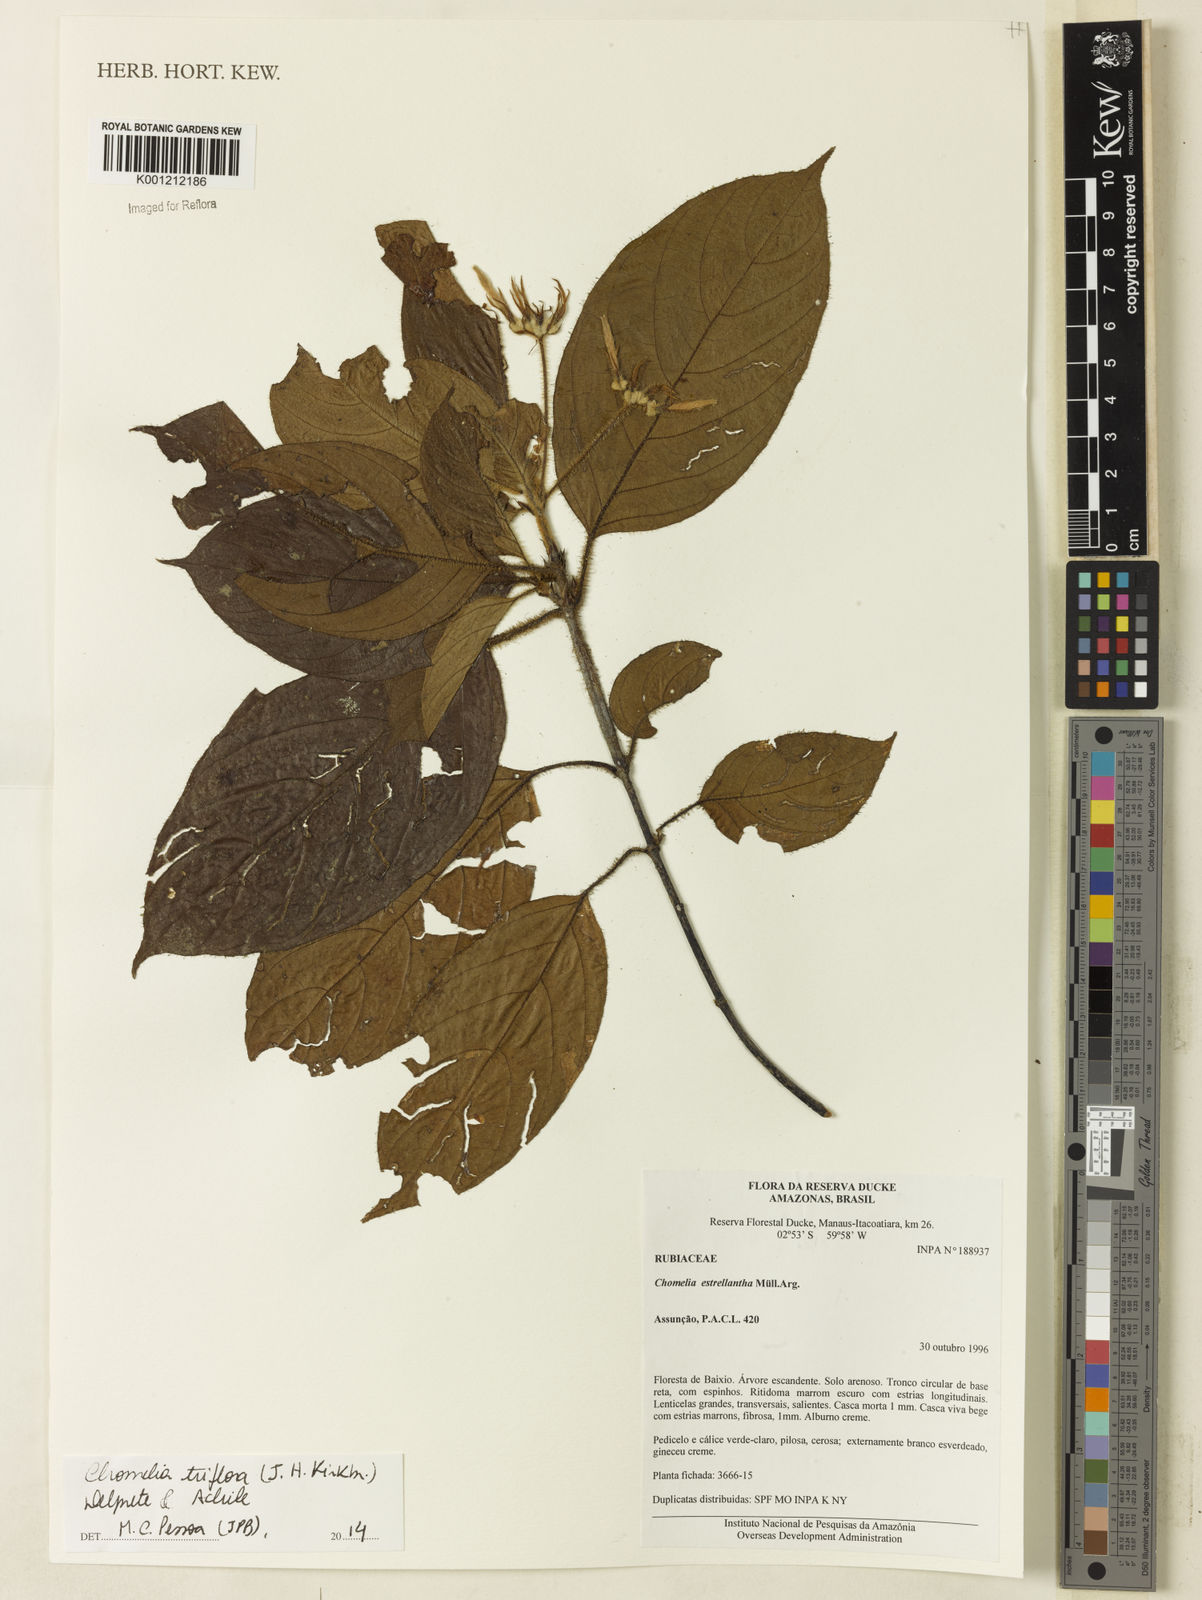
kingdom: Plantae
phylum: Tracheophyta
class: Magnoliopsida
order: Gentianales
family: Rubiaceae
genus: Chomelia
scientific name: Chomelia triflora
